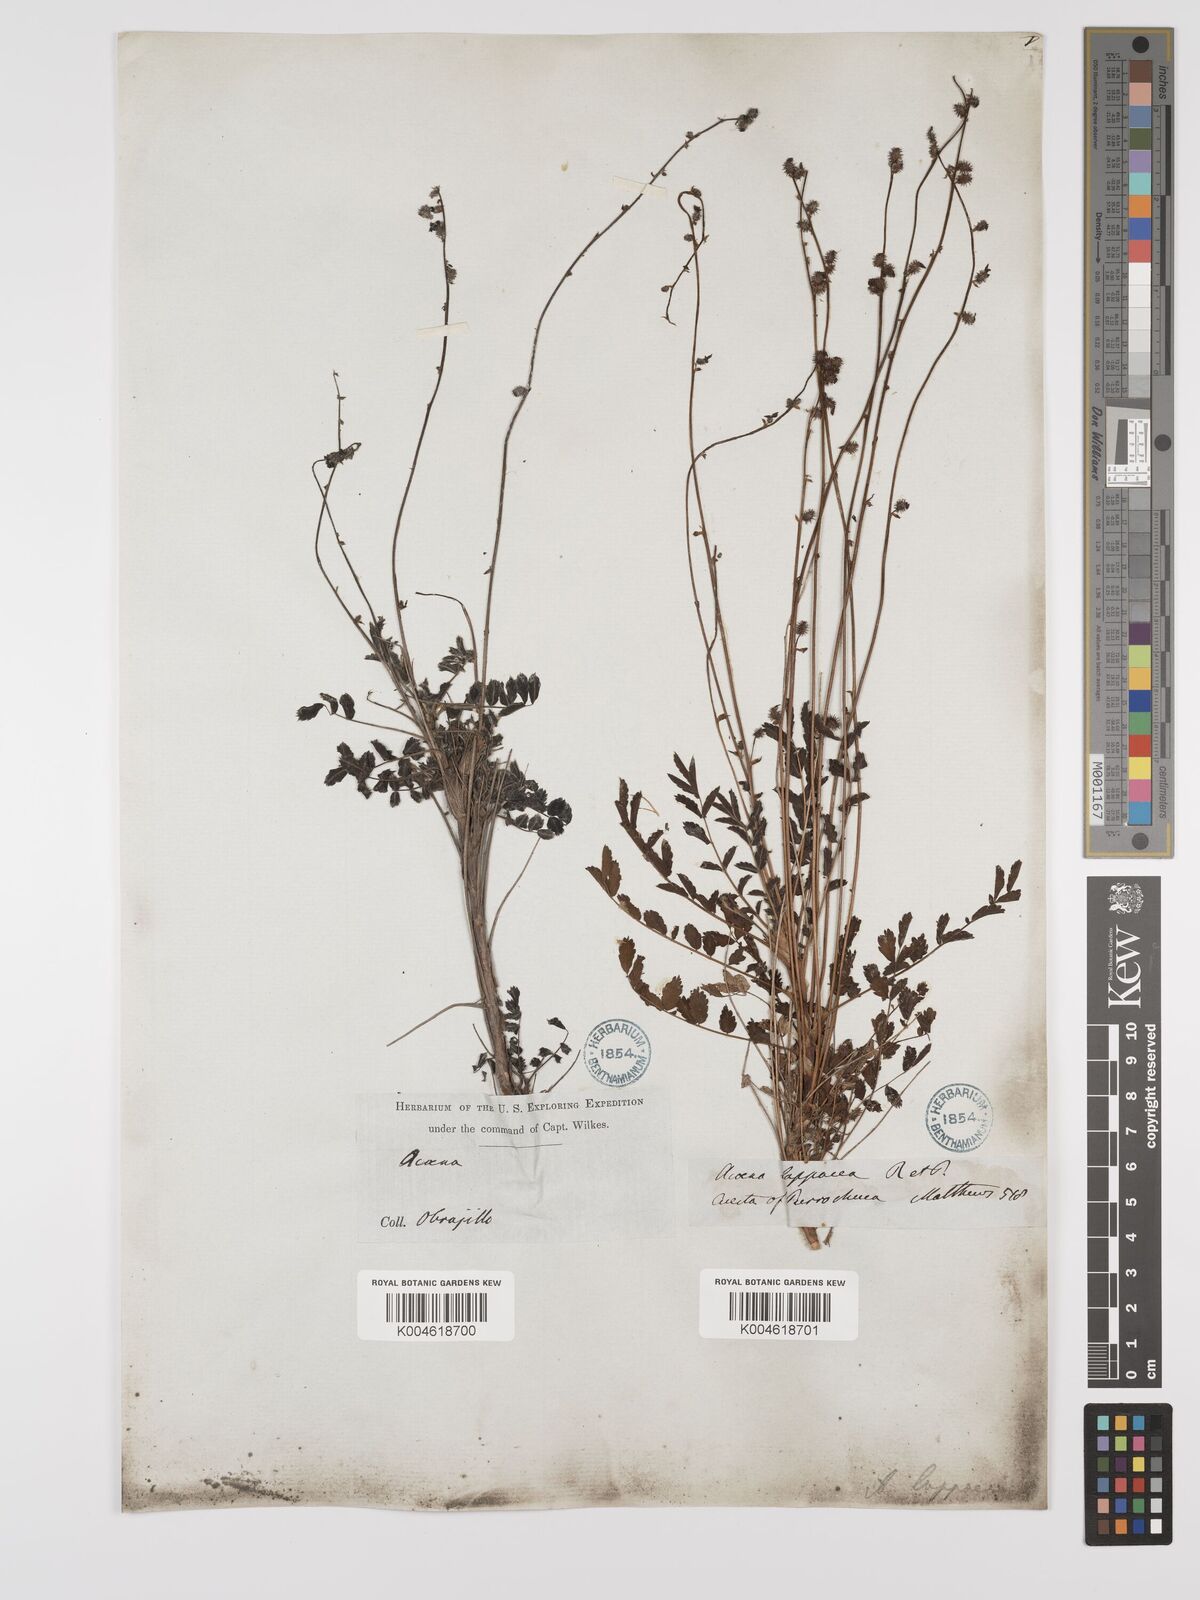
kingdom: Plantae
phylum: Tracheophyta
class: Magnoliopsida
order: Rosales
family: Rosaceae
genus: Acaena
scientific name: Acaena torilicarpa
